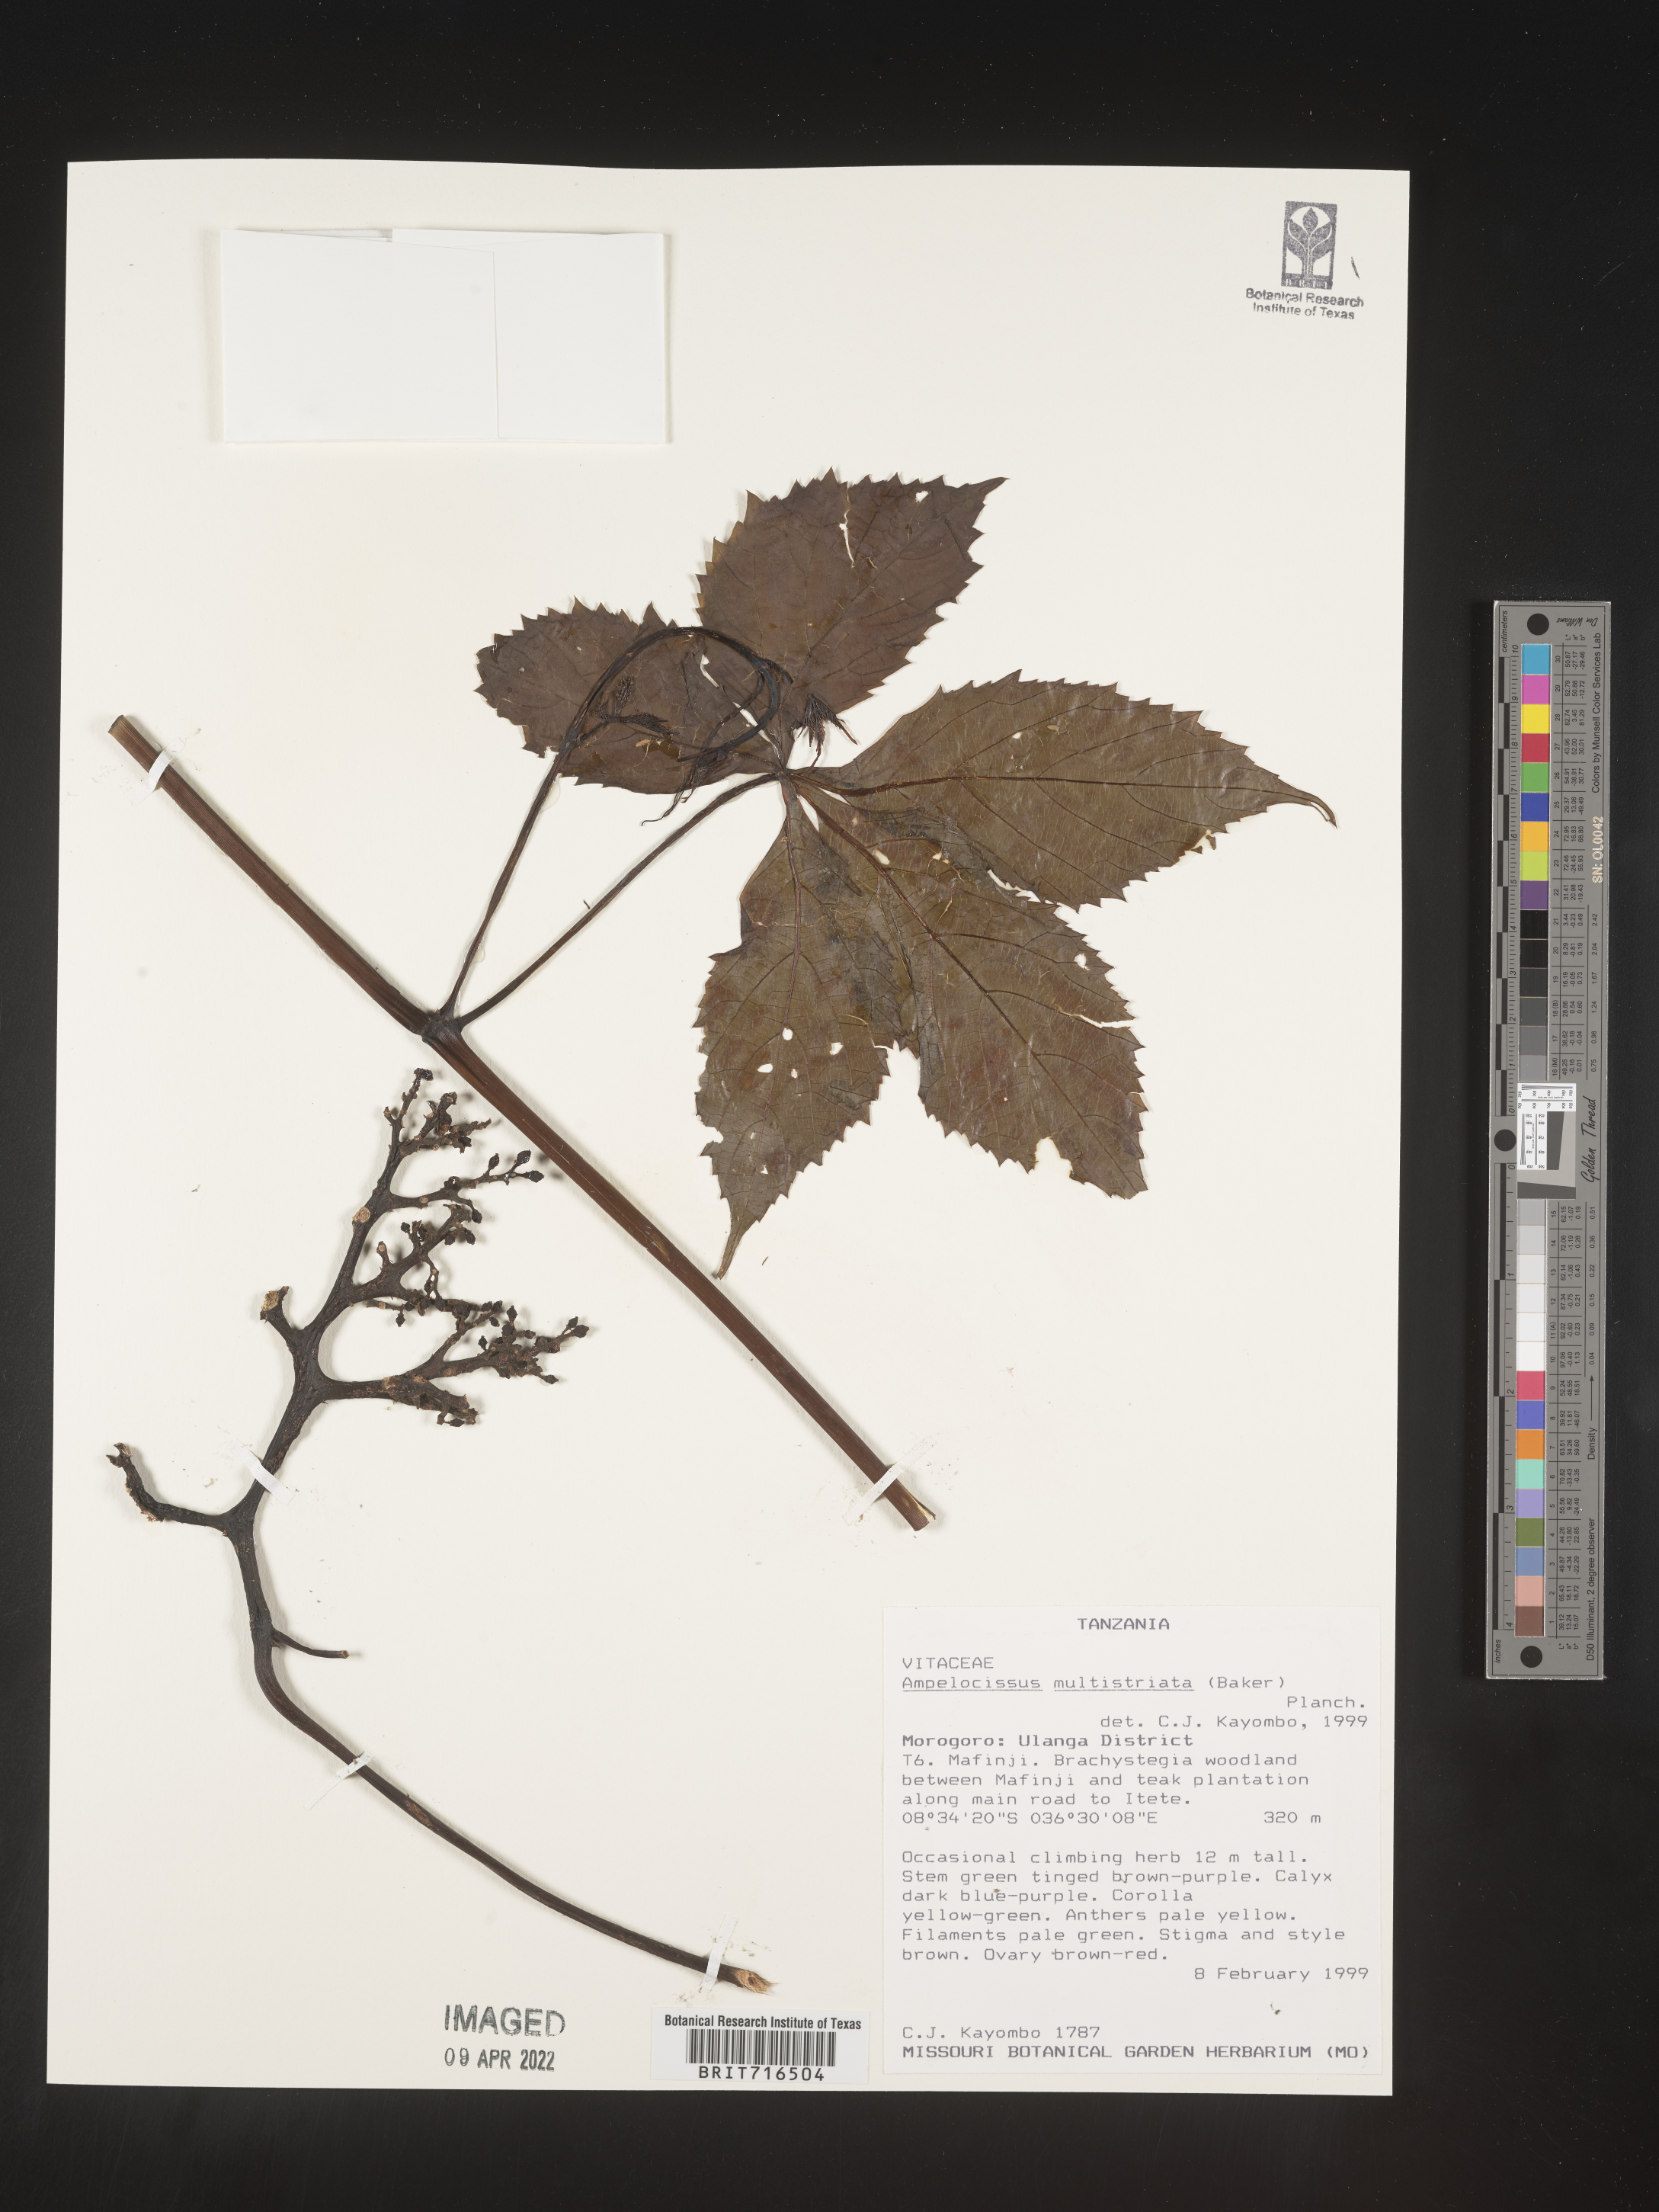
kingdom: Plantae
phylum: Tracheophyta
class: Magnoliopsida
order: Vitales
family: Vitaceae
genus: Ampelocissus
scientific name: Ampelocissus
